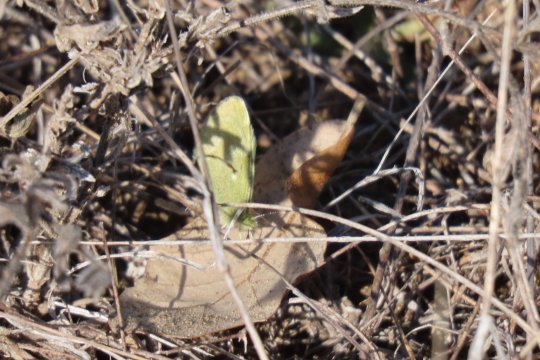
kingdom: Animalia
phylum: Arthropoda
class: Insecta
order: Lepidoptera
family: Pieridae
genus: Nathalis
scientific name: Nathalis iole
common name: Dainty Sulphur
